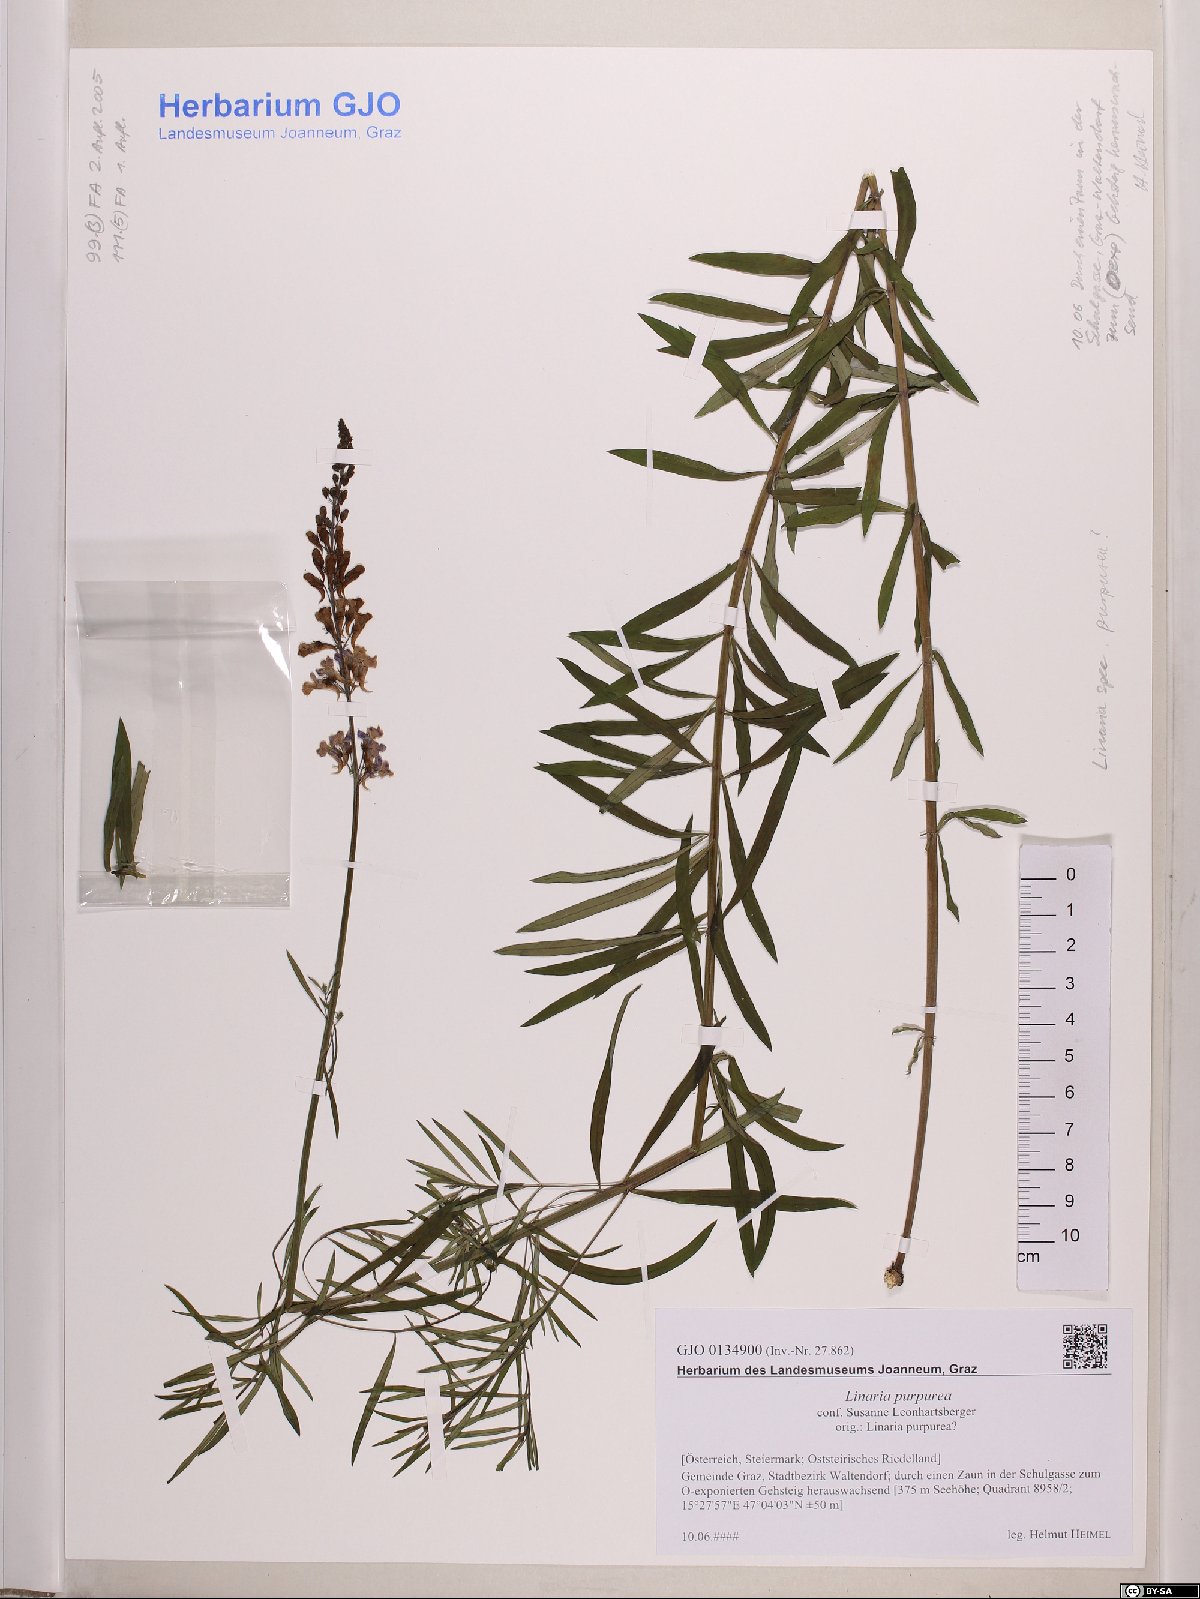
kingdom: Plantae
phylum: Tracheophyta
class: Magnoliopsida
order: Lamiales
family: Plantaginaceae
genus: Linaria
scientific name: Linaria purpurea
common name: Purple toadflax
